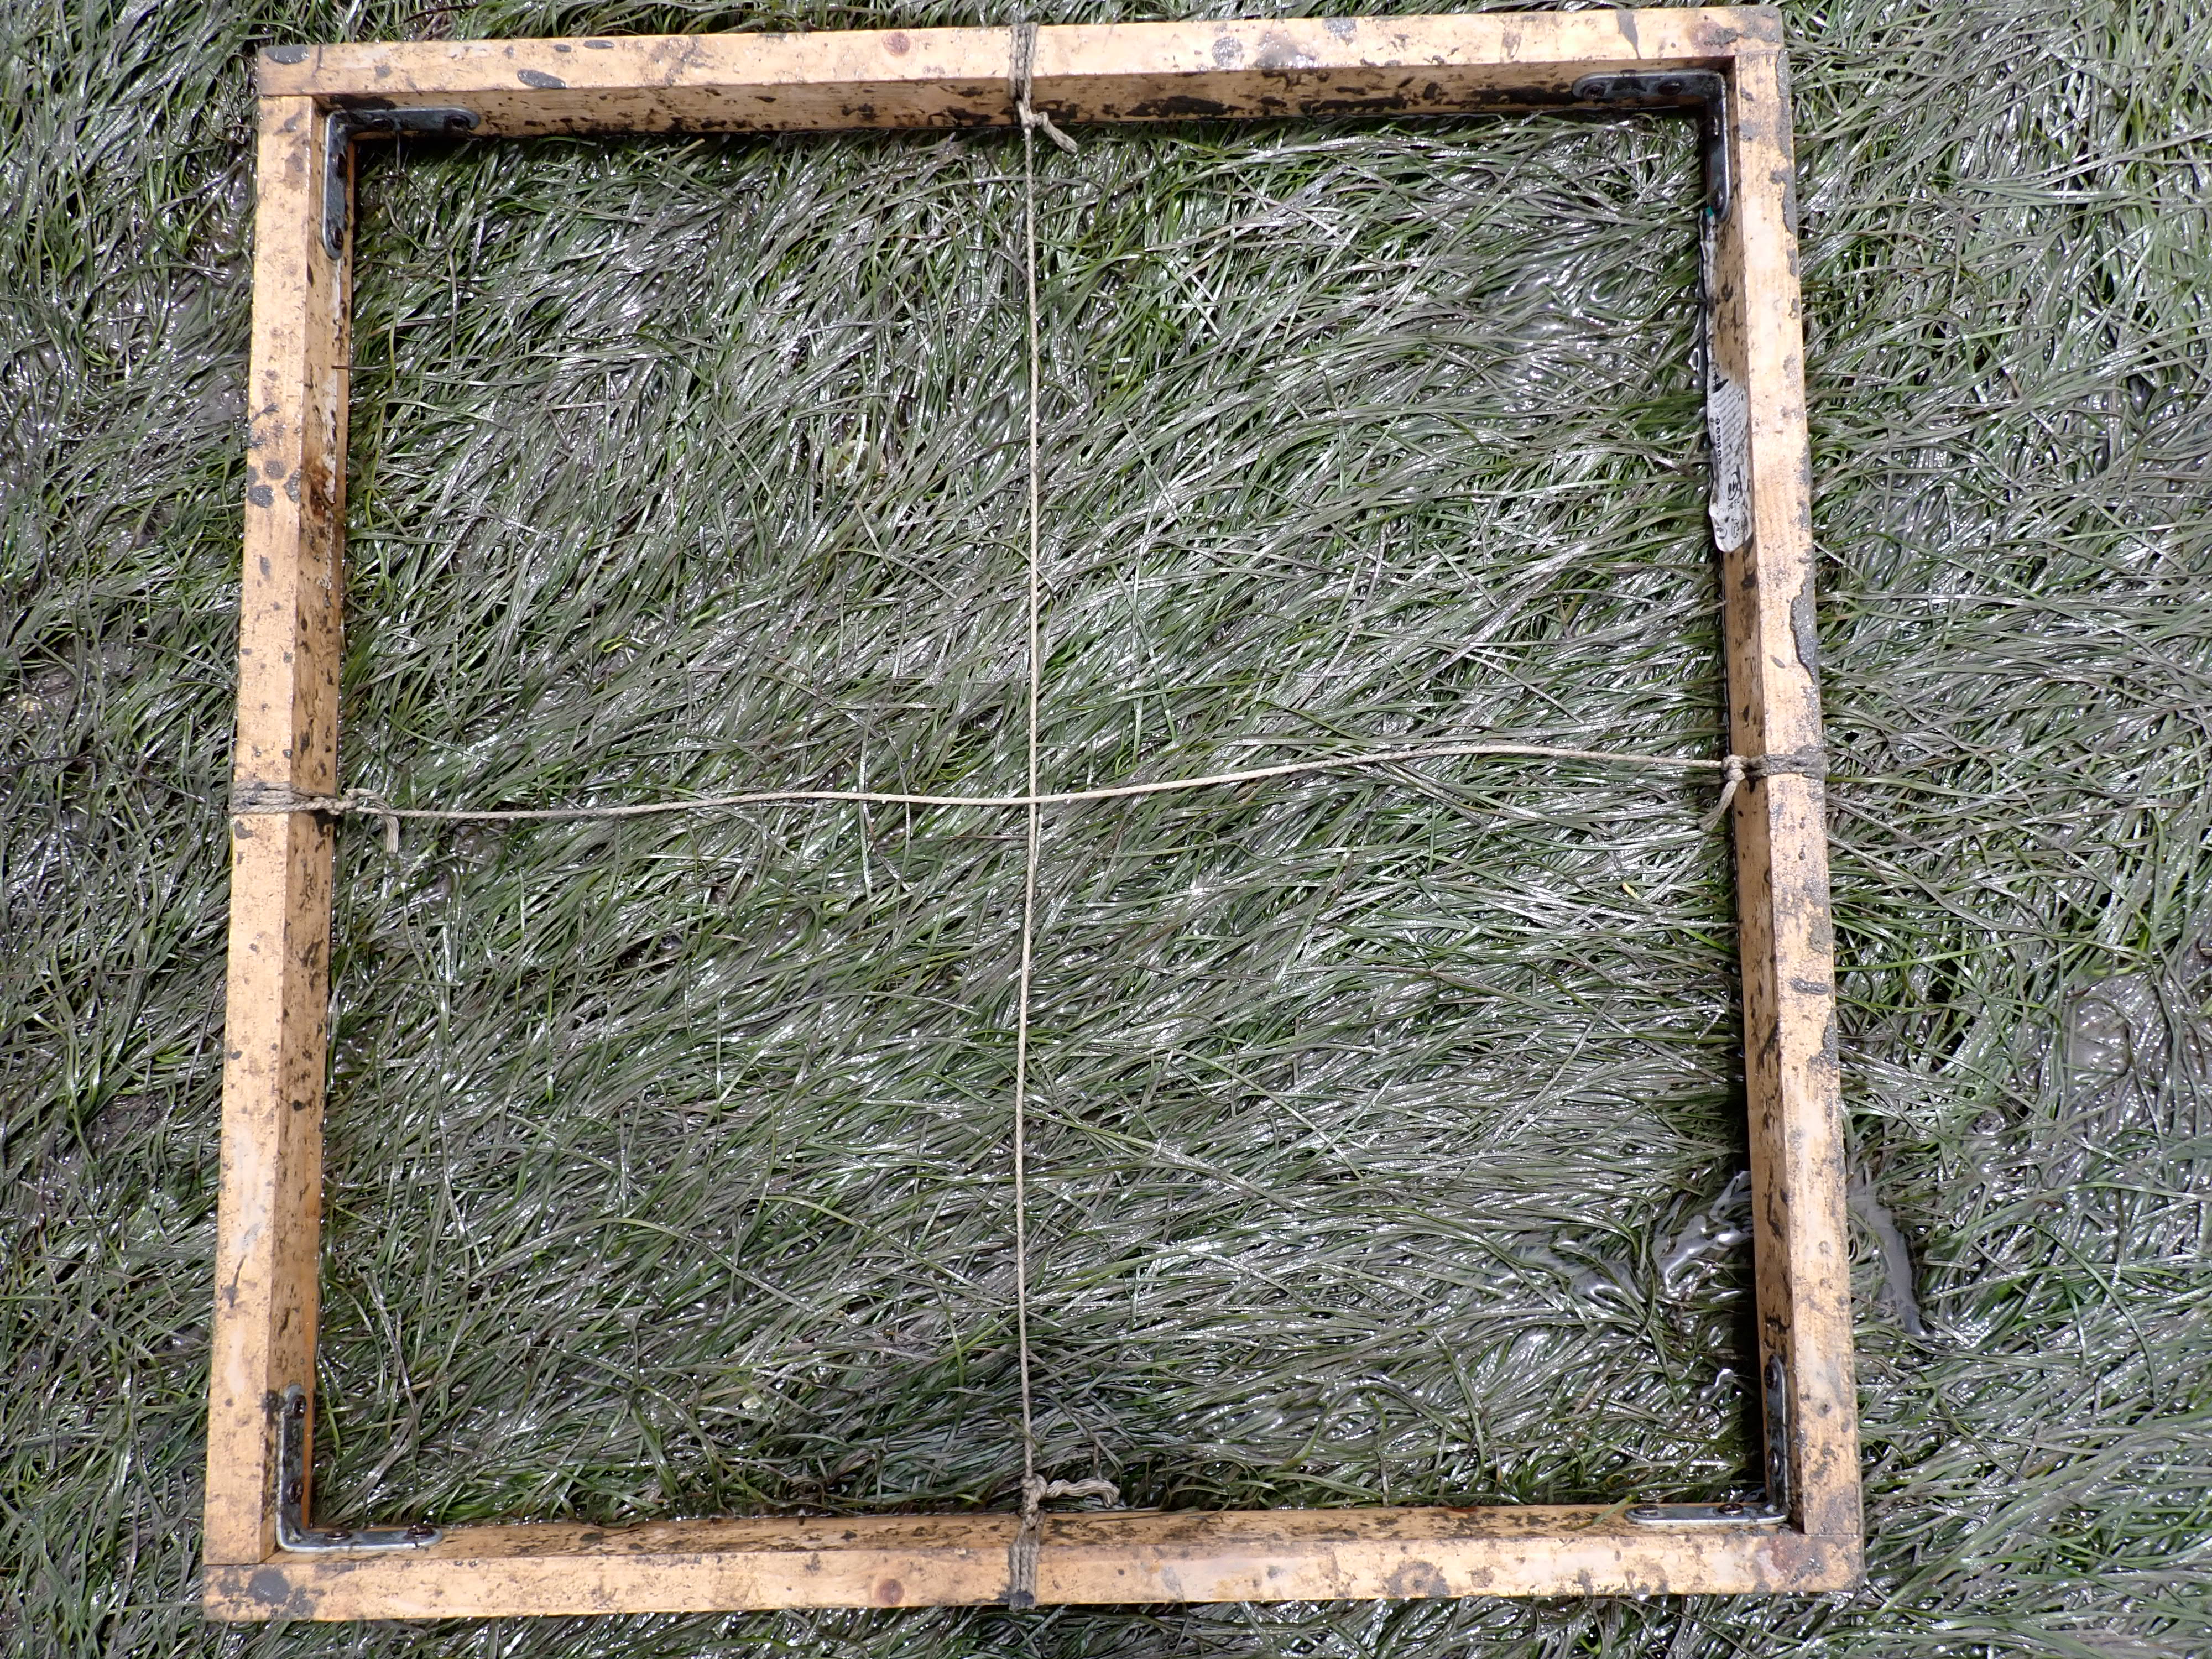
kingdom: Plantae
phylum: Tracheophyta
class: Liliopsida
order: Alismatales
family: Zosteraceae
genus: Zostera
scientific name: Zostera noltii
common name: Dwarf eelgrass
